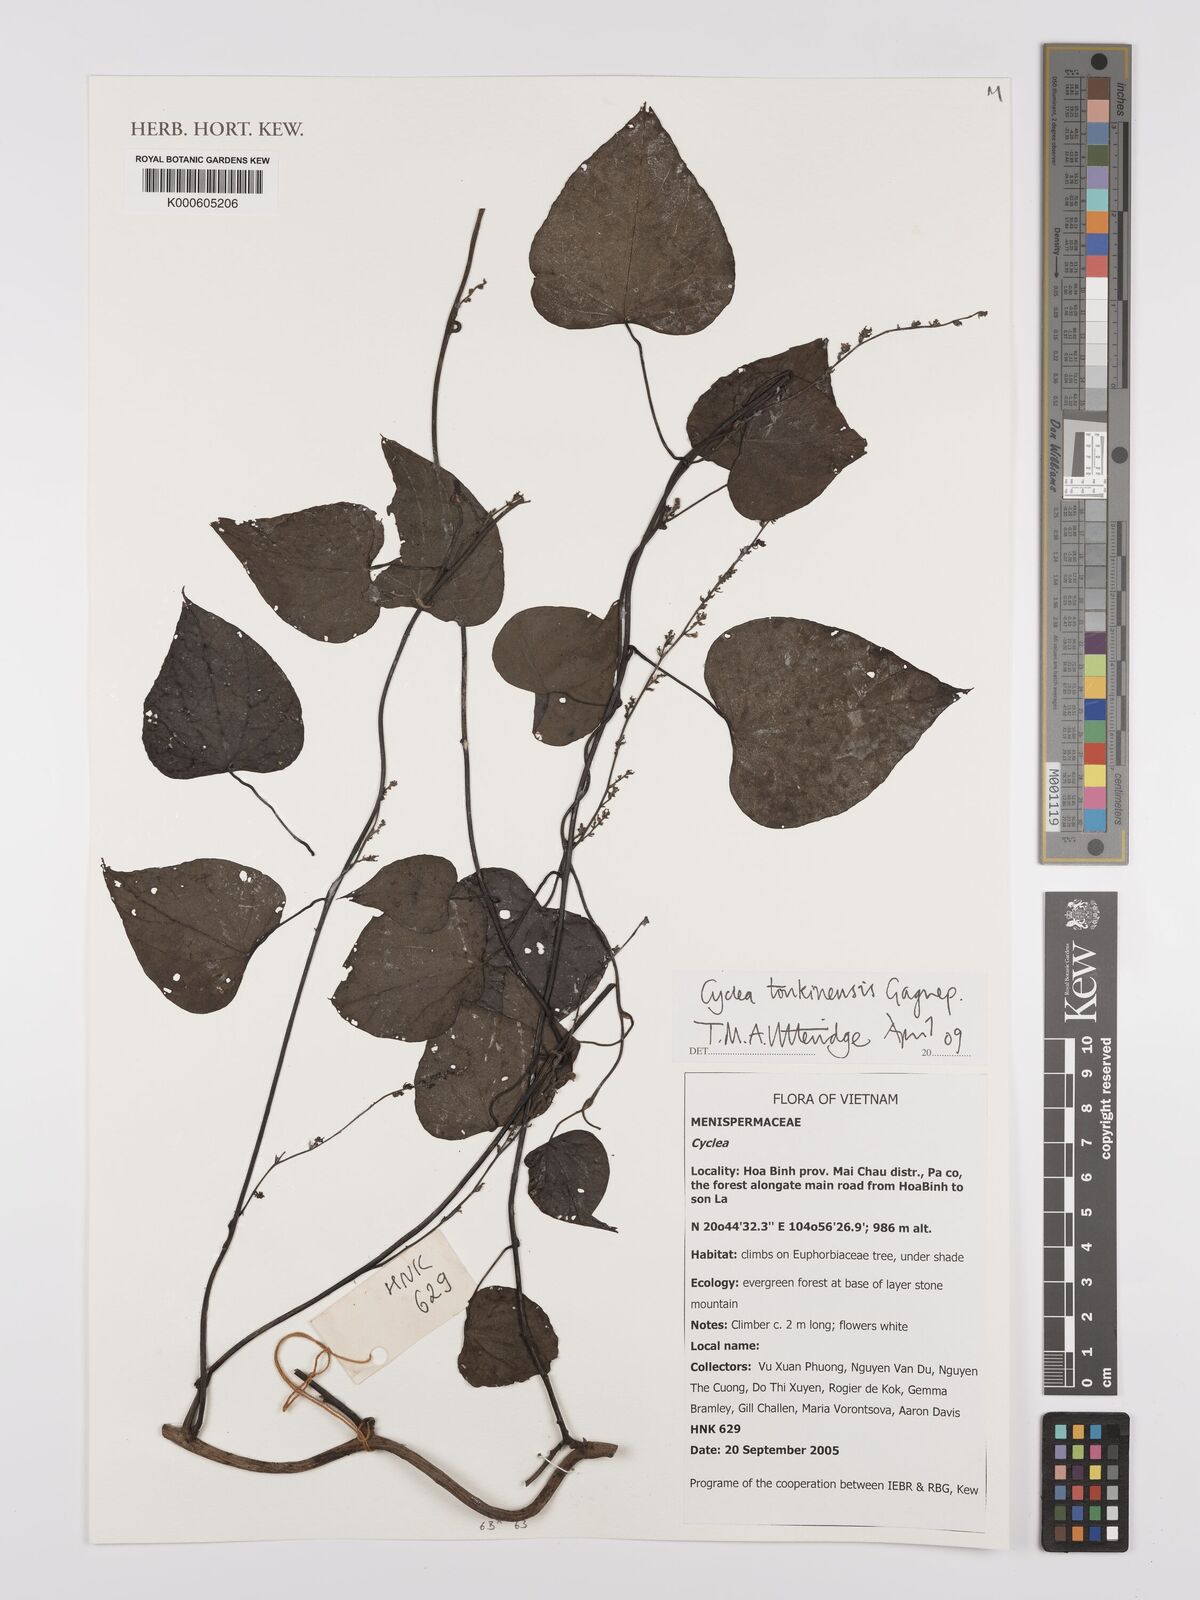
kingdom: Plantae
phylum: Tracheophyta
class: Magnoliopsida
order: Ranunculales
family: Menispermaceae
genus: Cyclea
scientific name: Cyclea tonkinensis
